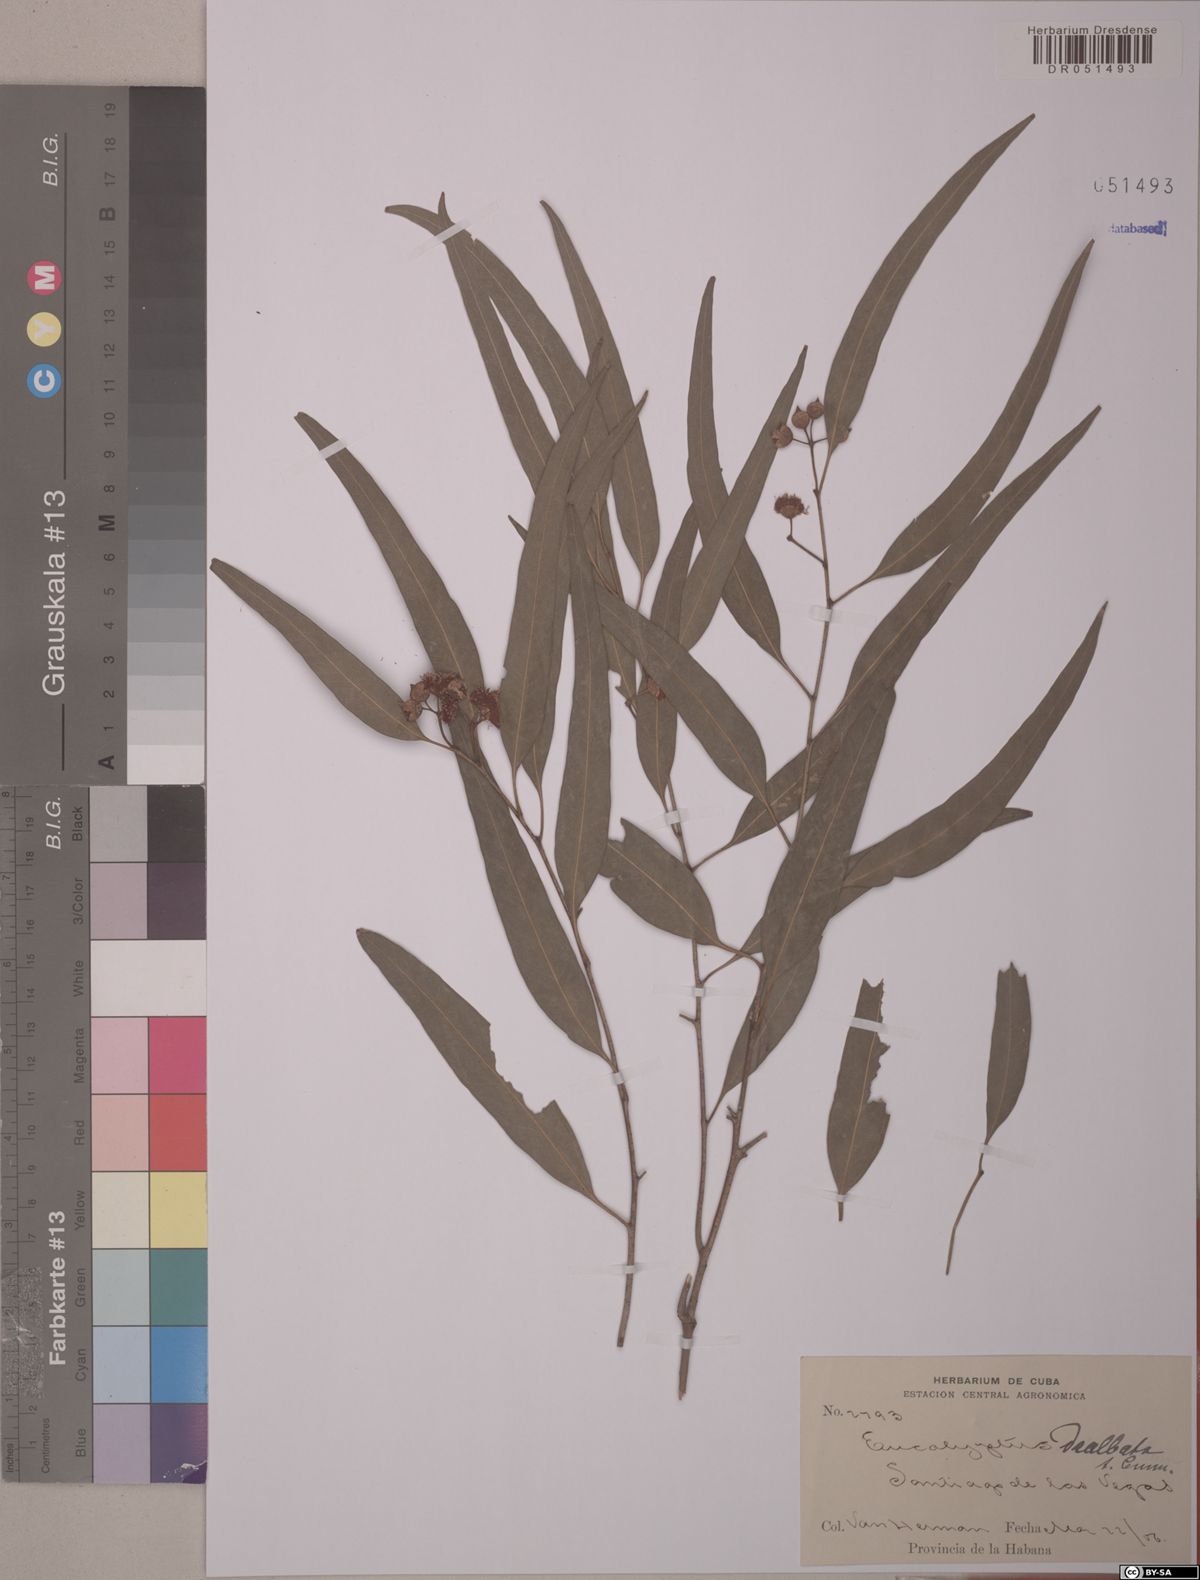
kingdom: Plantae
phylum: Tracheophyta
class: Magnoliopsida
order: Myrtales
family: Myrtaceae
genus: Eucalyptus
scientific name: Eucalyptus dealbata
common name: Red gum
